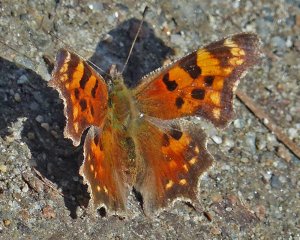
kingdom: Animalia
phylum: Arthropoda
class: Insecta
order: Lepidoptera
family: Nymphalidae
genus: Polygonia
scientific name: Polygonia faunus
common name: Green Comma
